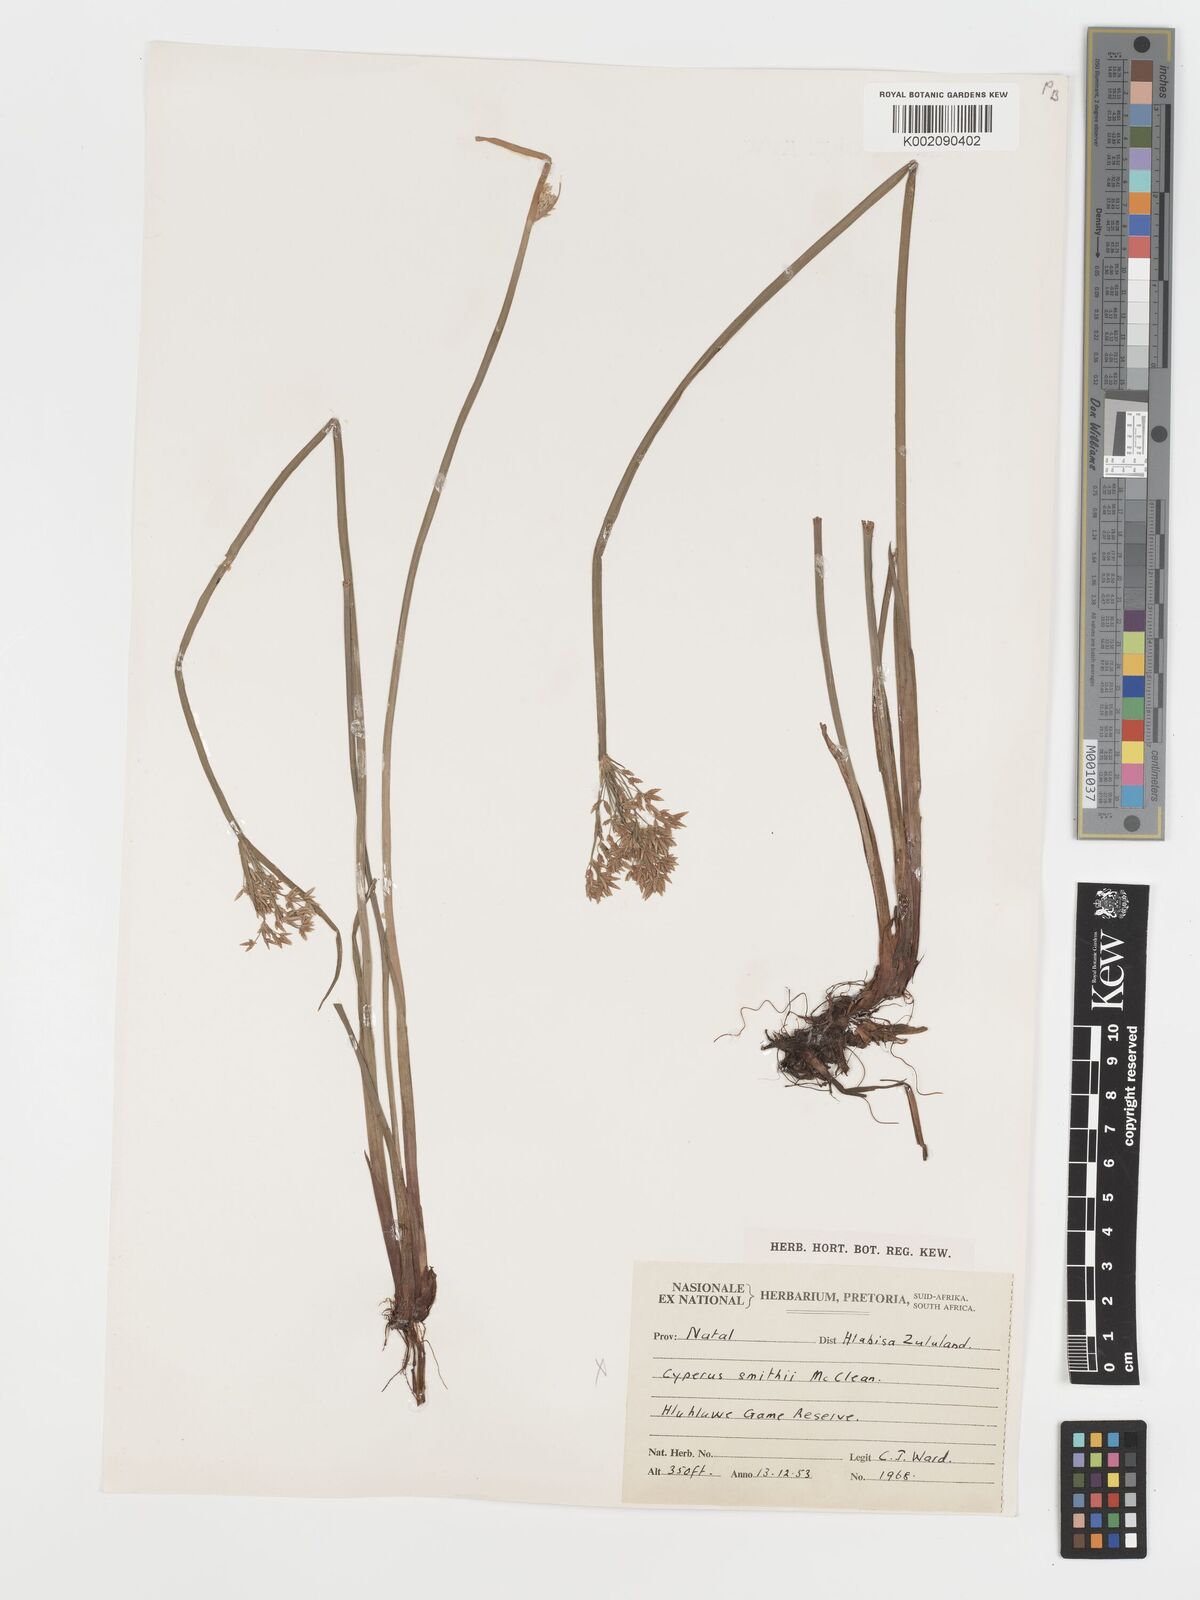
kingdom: Plantae
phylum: Tracheophyta
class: Liliopsida
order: Poales
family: Cyperaceae
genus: Cyperus
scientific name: Cyperus platycaulis
